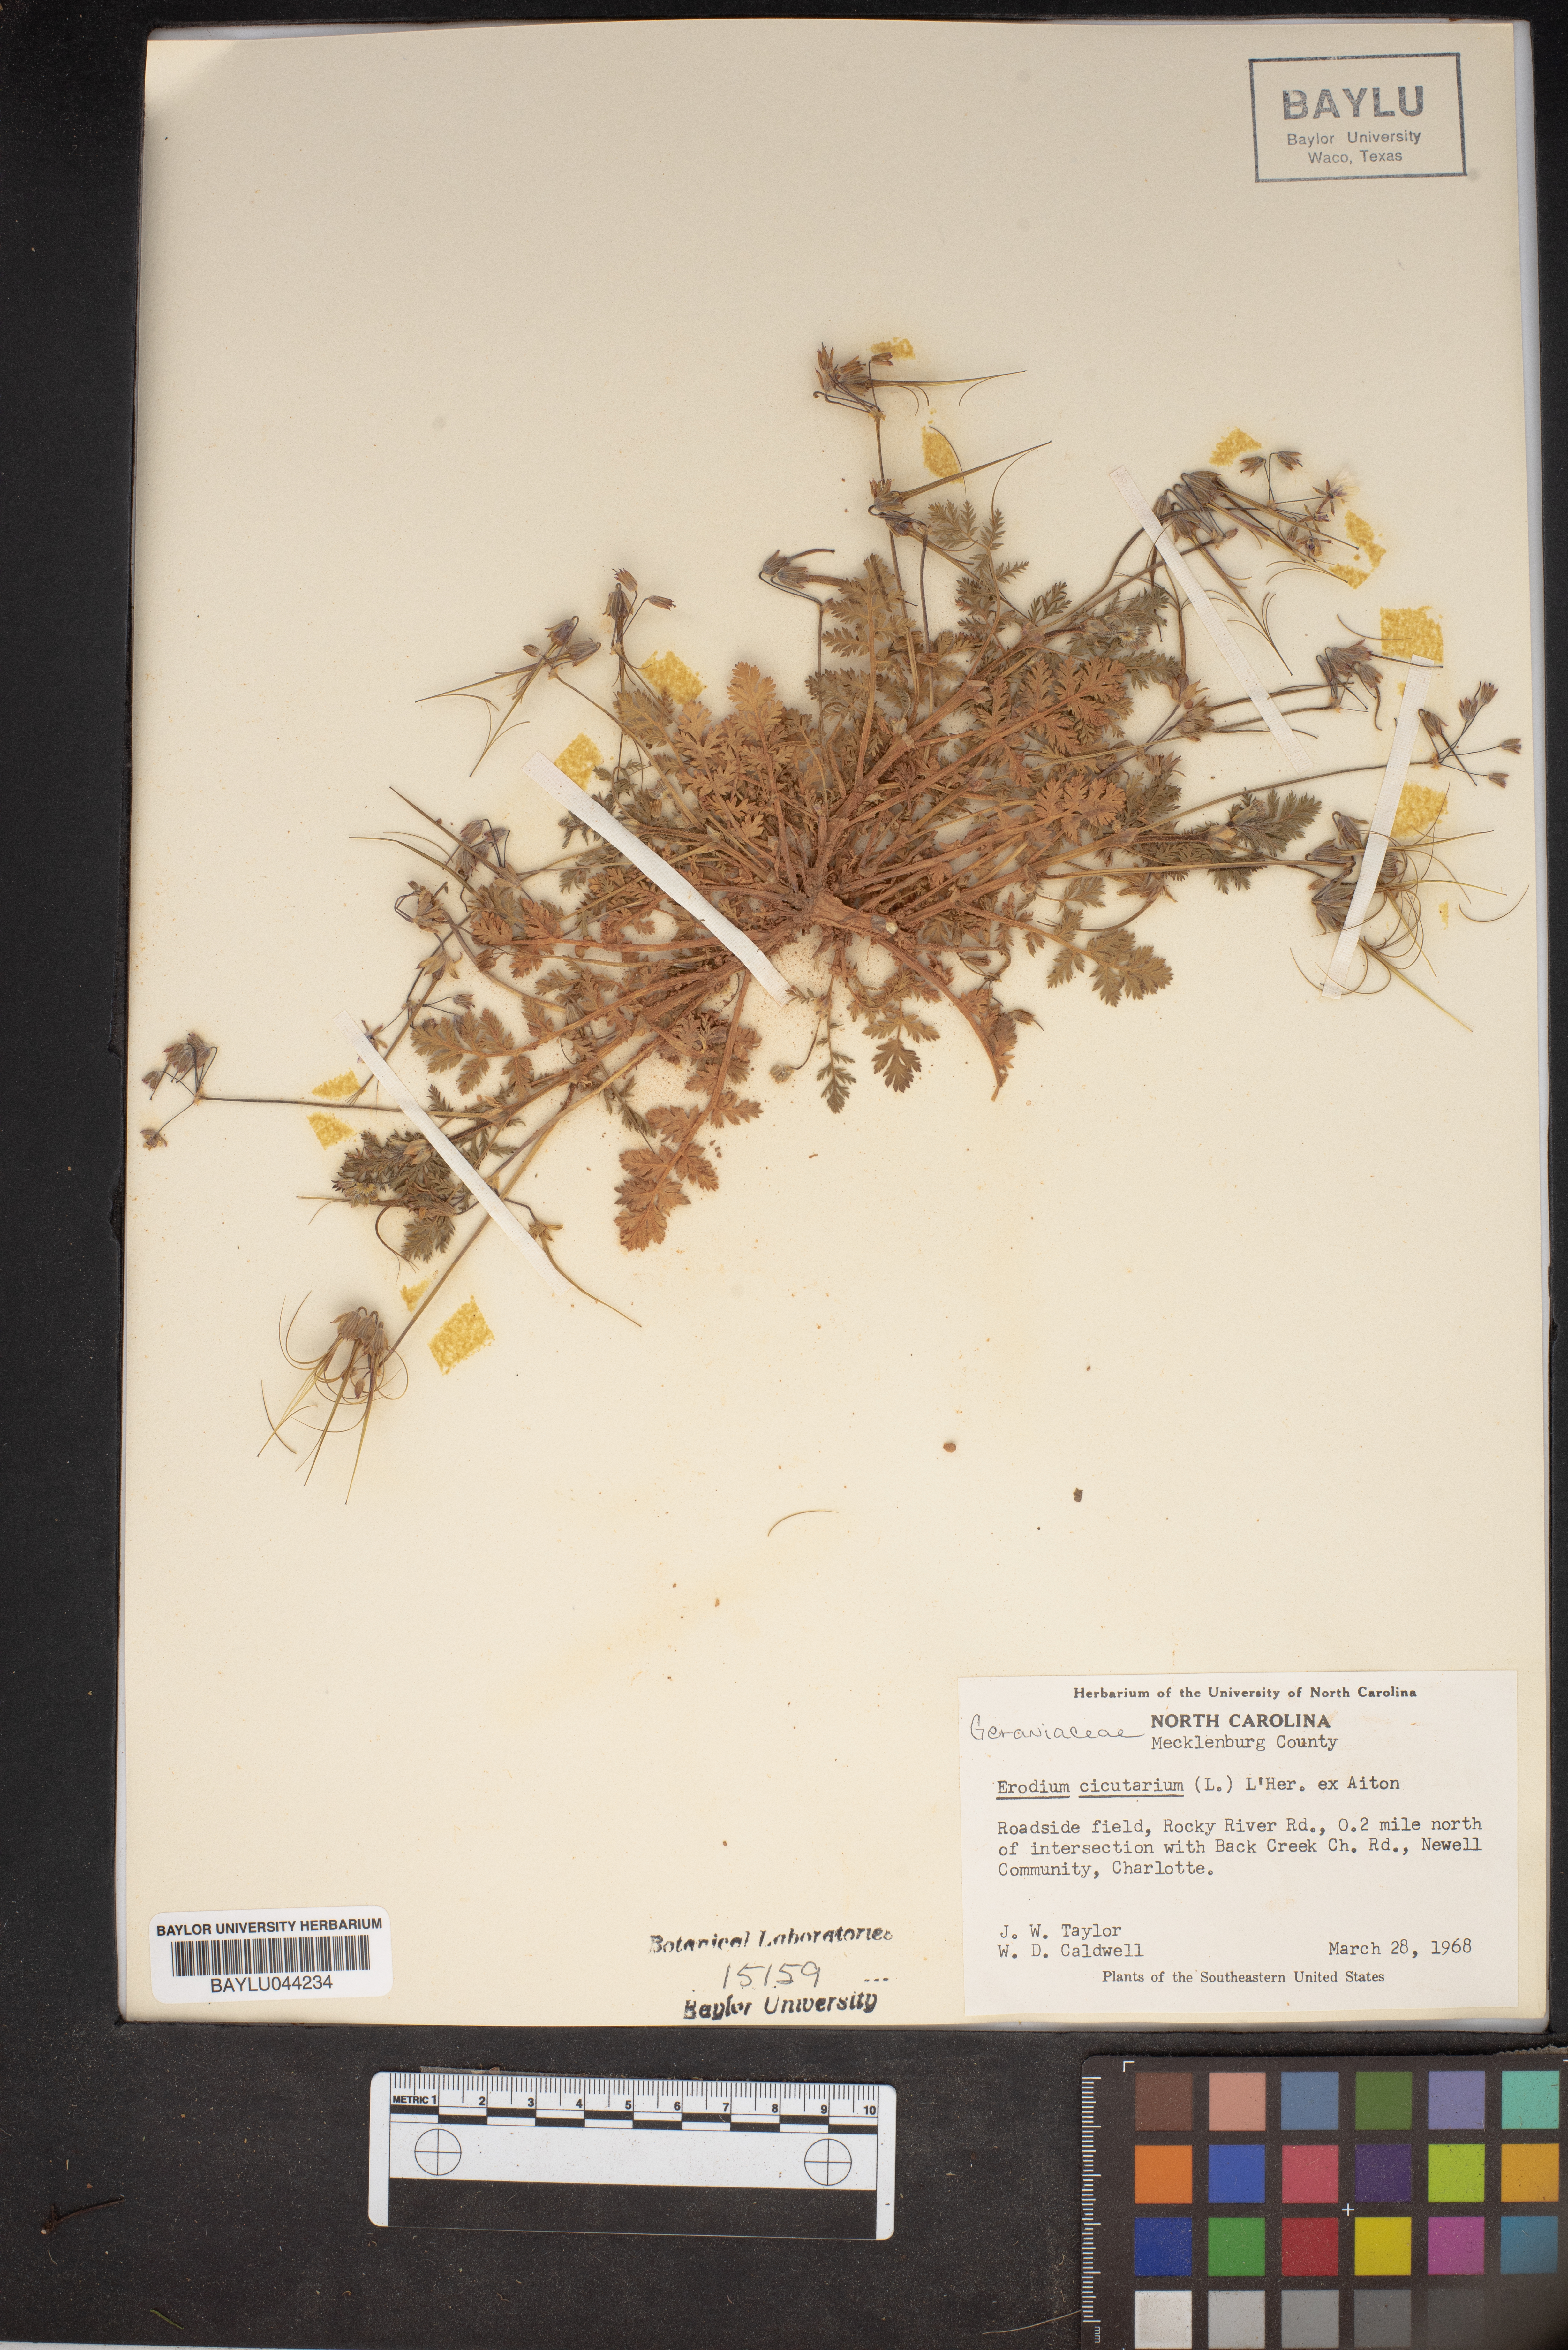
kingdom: Plantae
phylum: Tracheophyta
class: Magnoliopsida
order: Geraniales
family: Geraniaceae
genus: Erodium
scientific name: Erodium cicutarium
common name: Common stork's-bill
